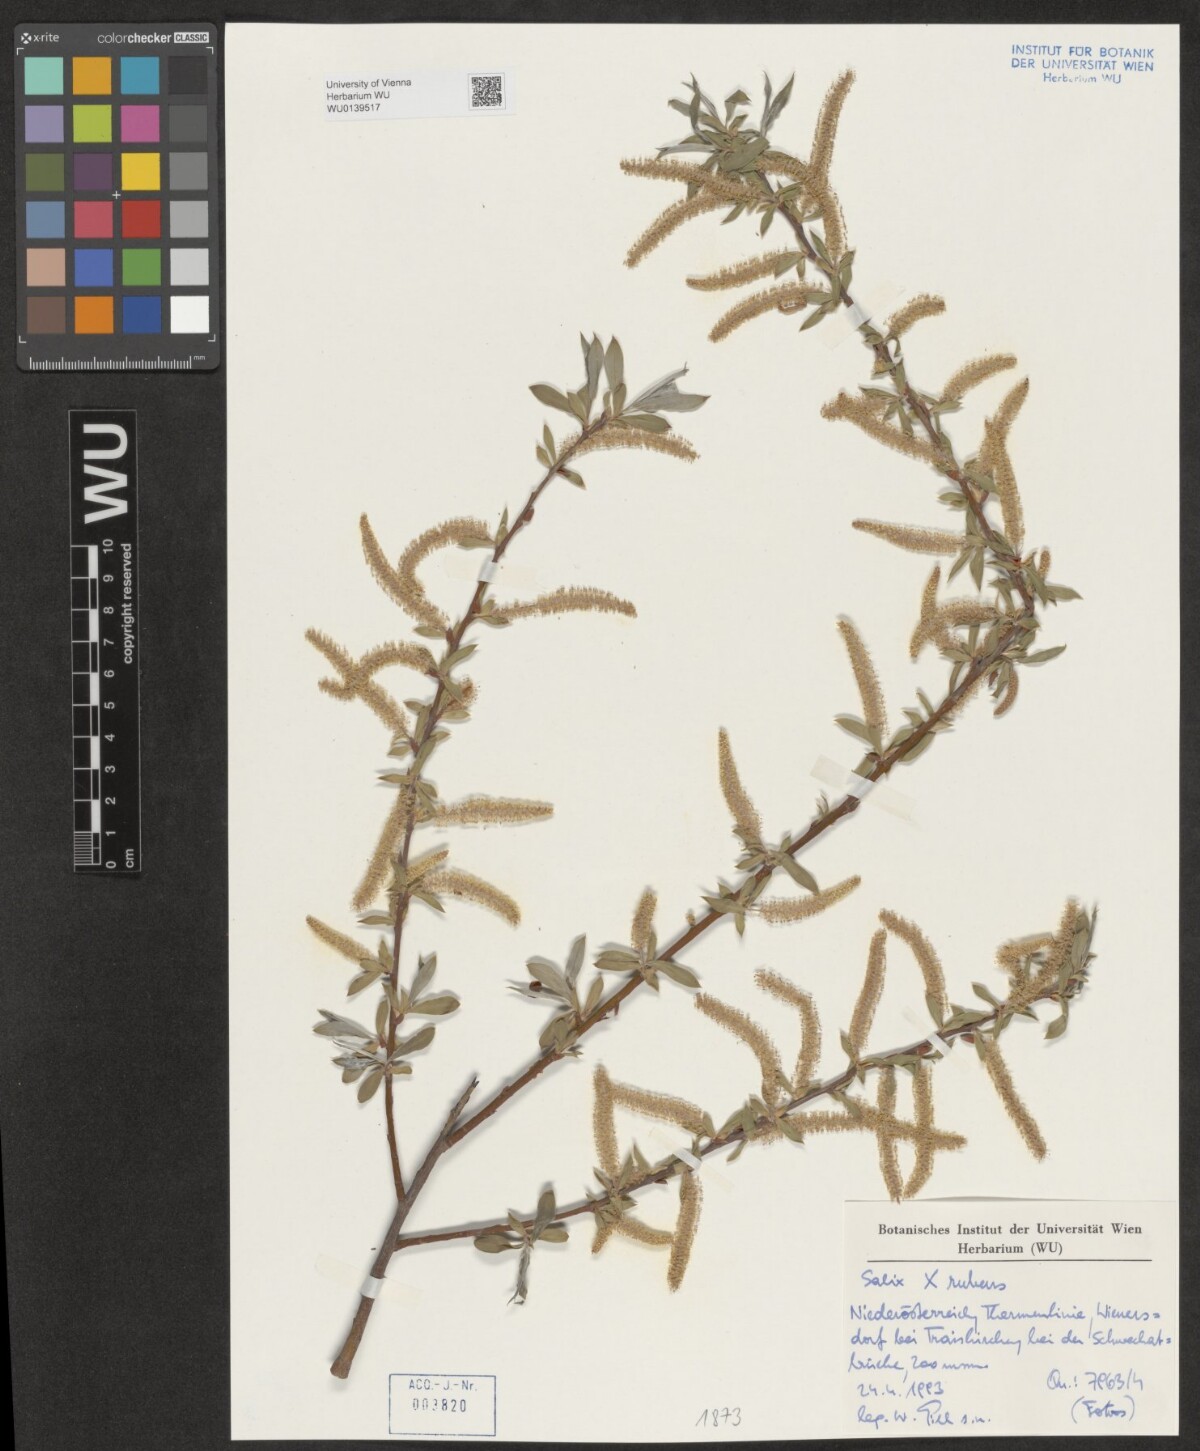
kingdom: Plantae
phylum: Tracheophyta
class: Magnoliopsida
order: Malpighiales
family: Salicaceae
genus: Salix
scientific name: Salix rubens
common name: Hybrid crack willow
